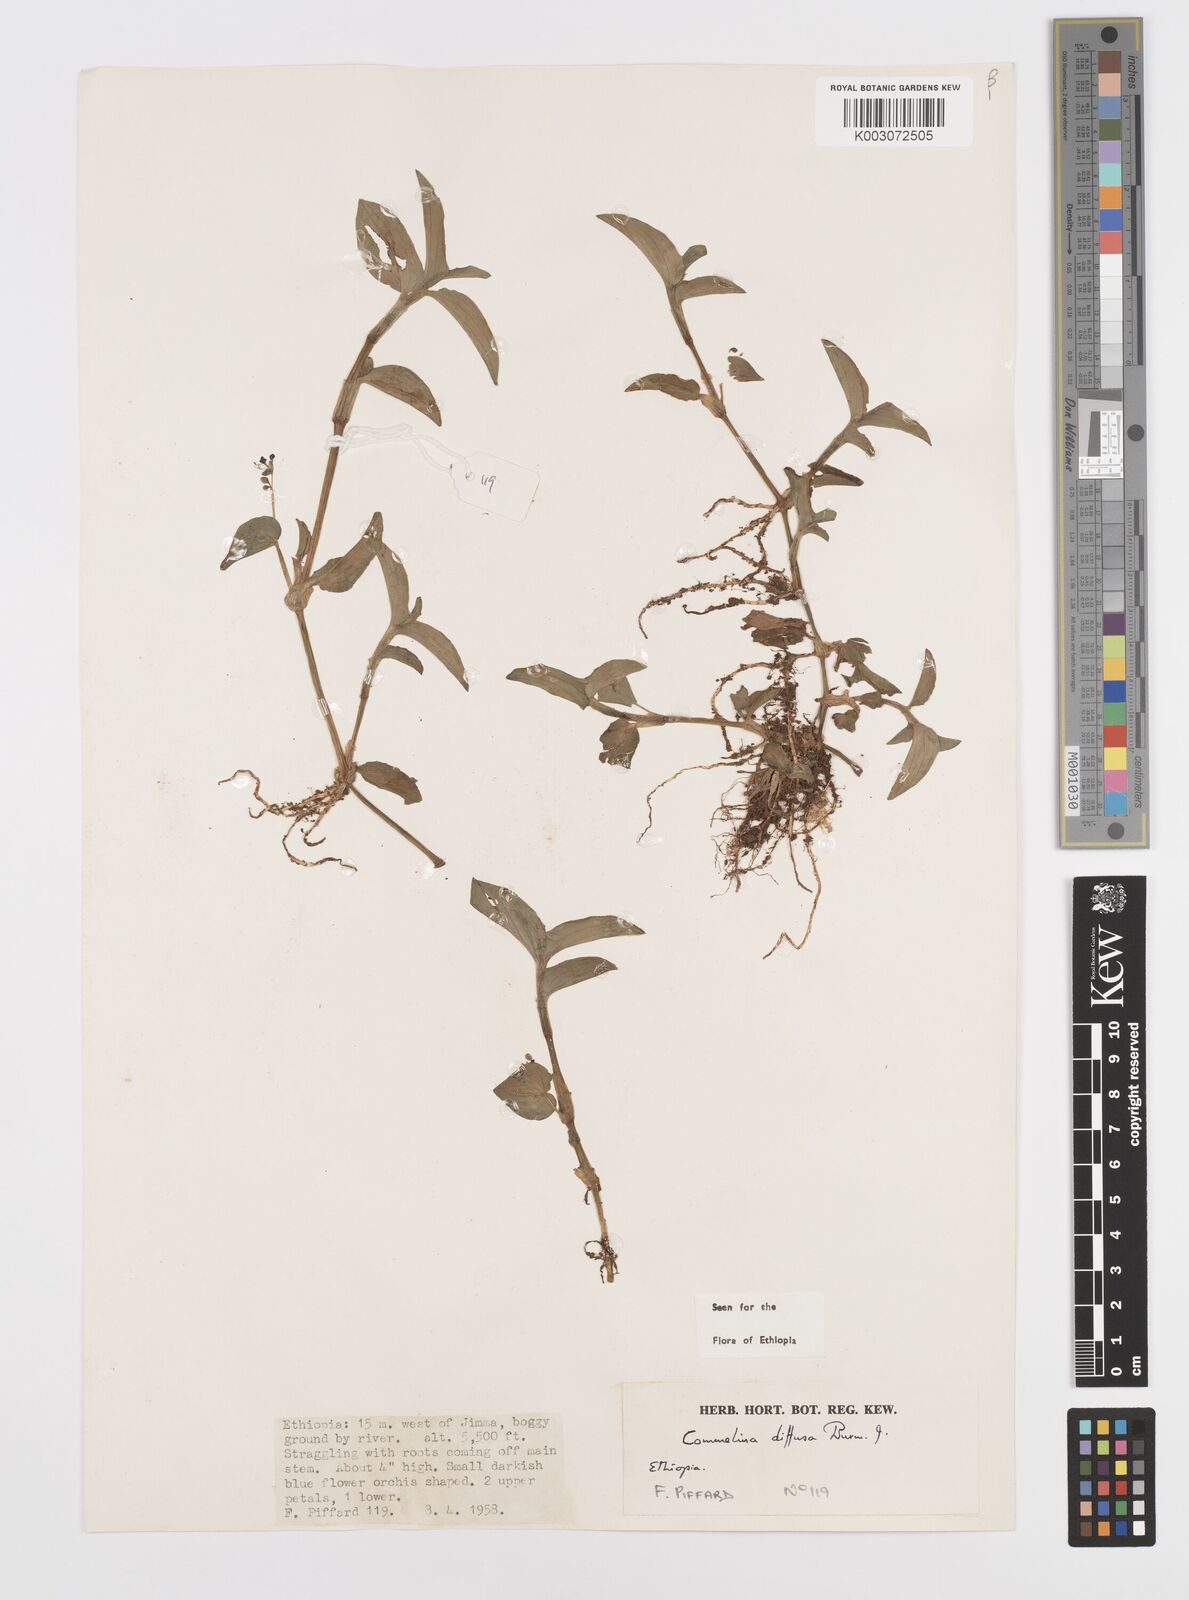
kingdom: Plantae
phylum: Tracheophyta
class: Liliopsida
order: Commelinales
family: Commelinaceae
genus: Commelina
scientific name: Commelina diffusa
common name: Climbing dayflower
